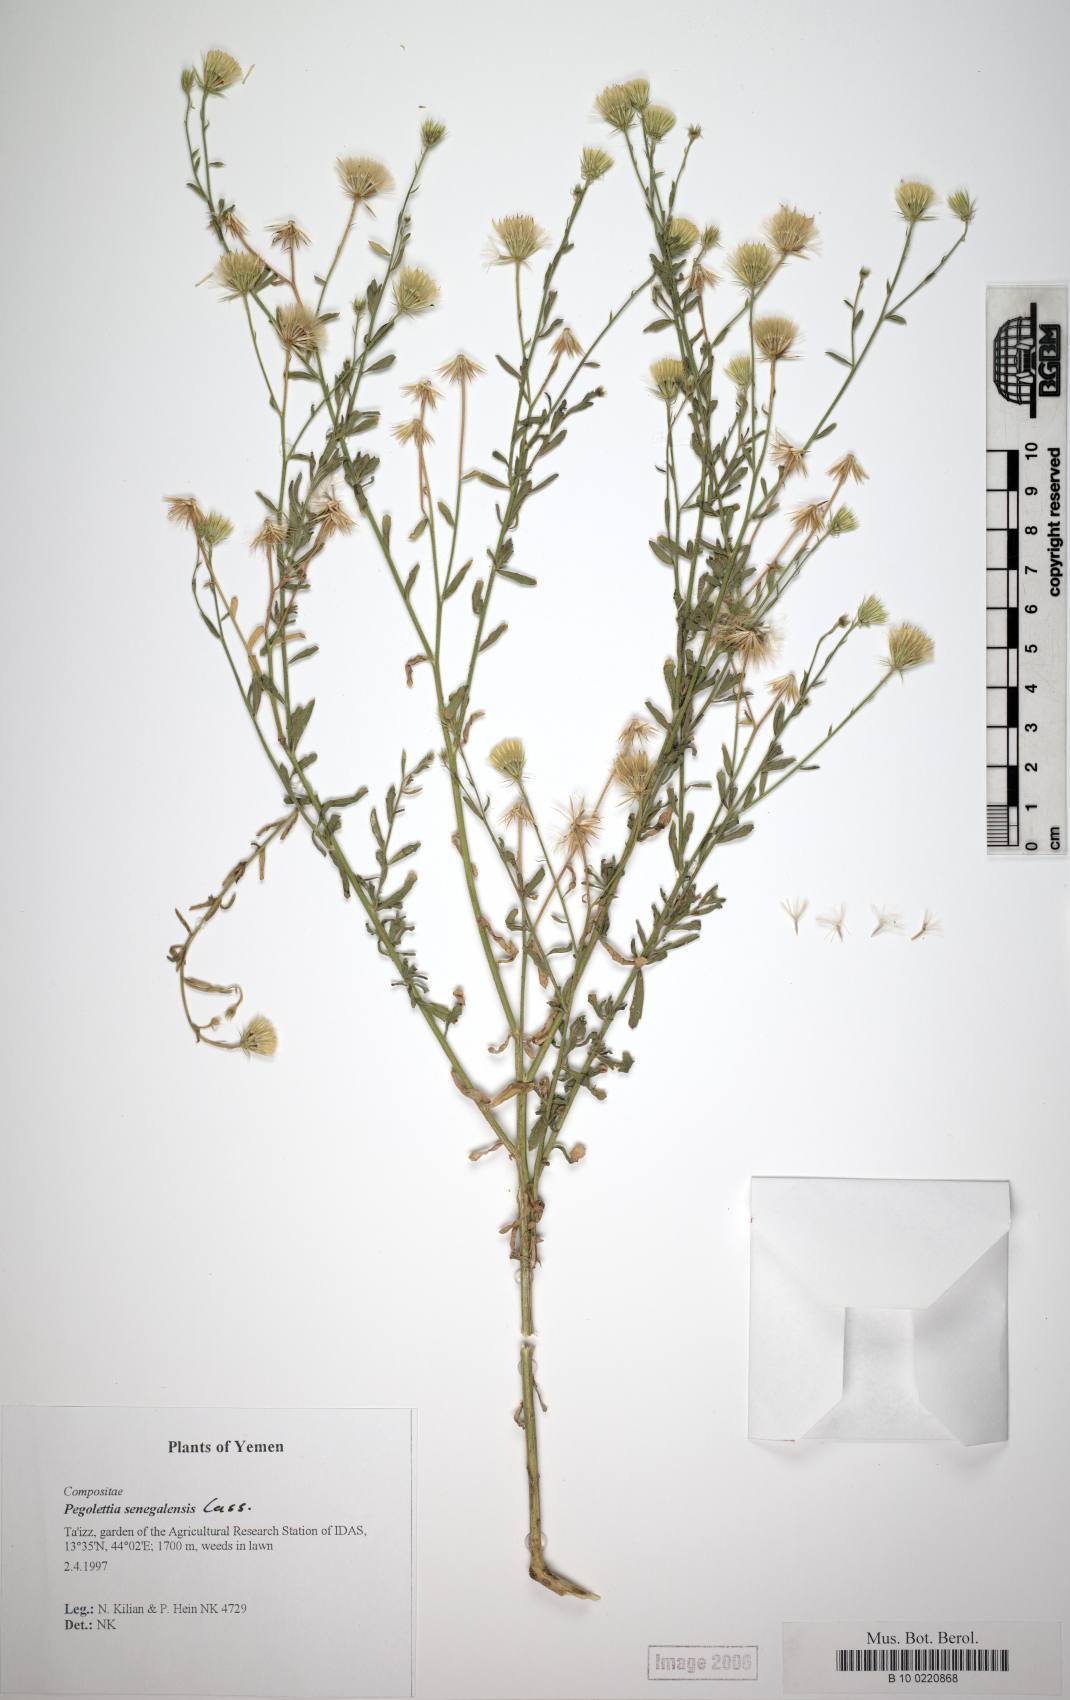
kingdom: Plantae
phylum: Tracheophyta
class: Magnoliopsida
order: Asterales
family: Asteraceae
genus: Pegolettia
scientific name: Pegolettia senegalensis
